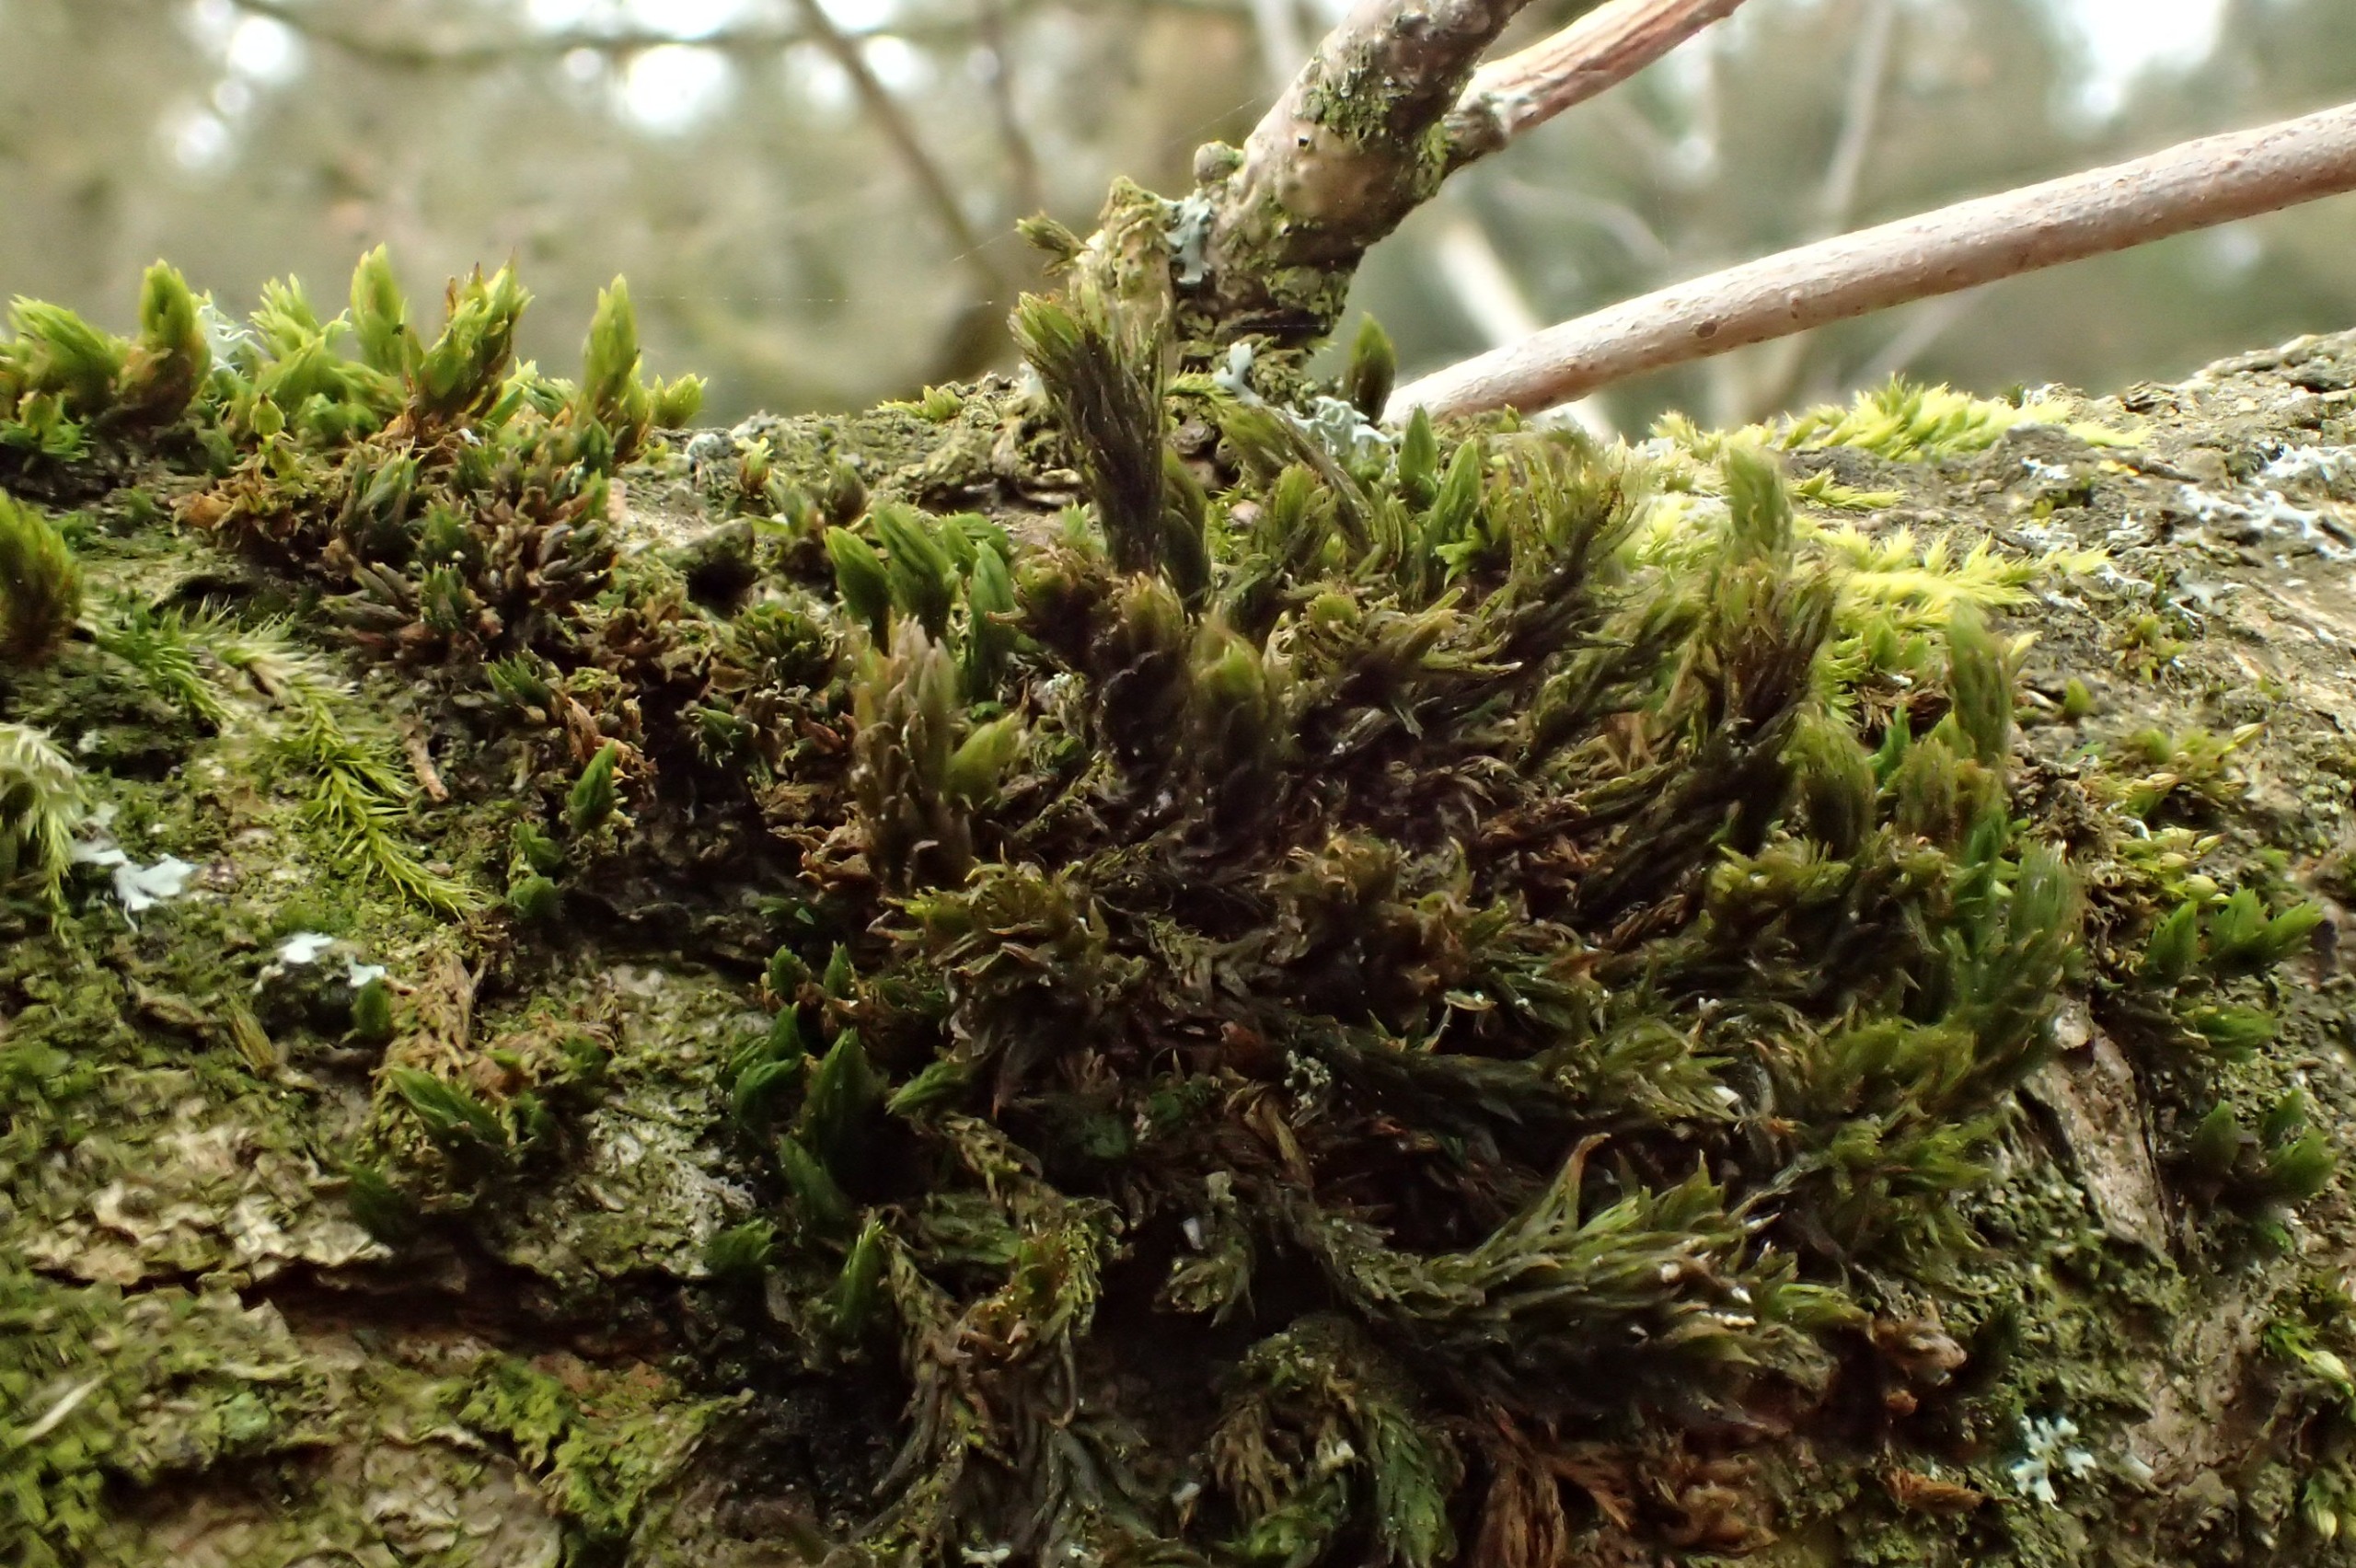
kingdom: Plantae
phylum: Bryophyta
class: Bryopsida
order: Orthotrichales
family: Orthotrichaceae
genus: Pulvigera
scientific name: Pulvigera lyellii
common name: Stor furehætte
